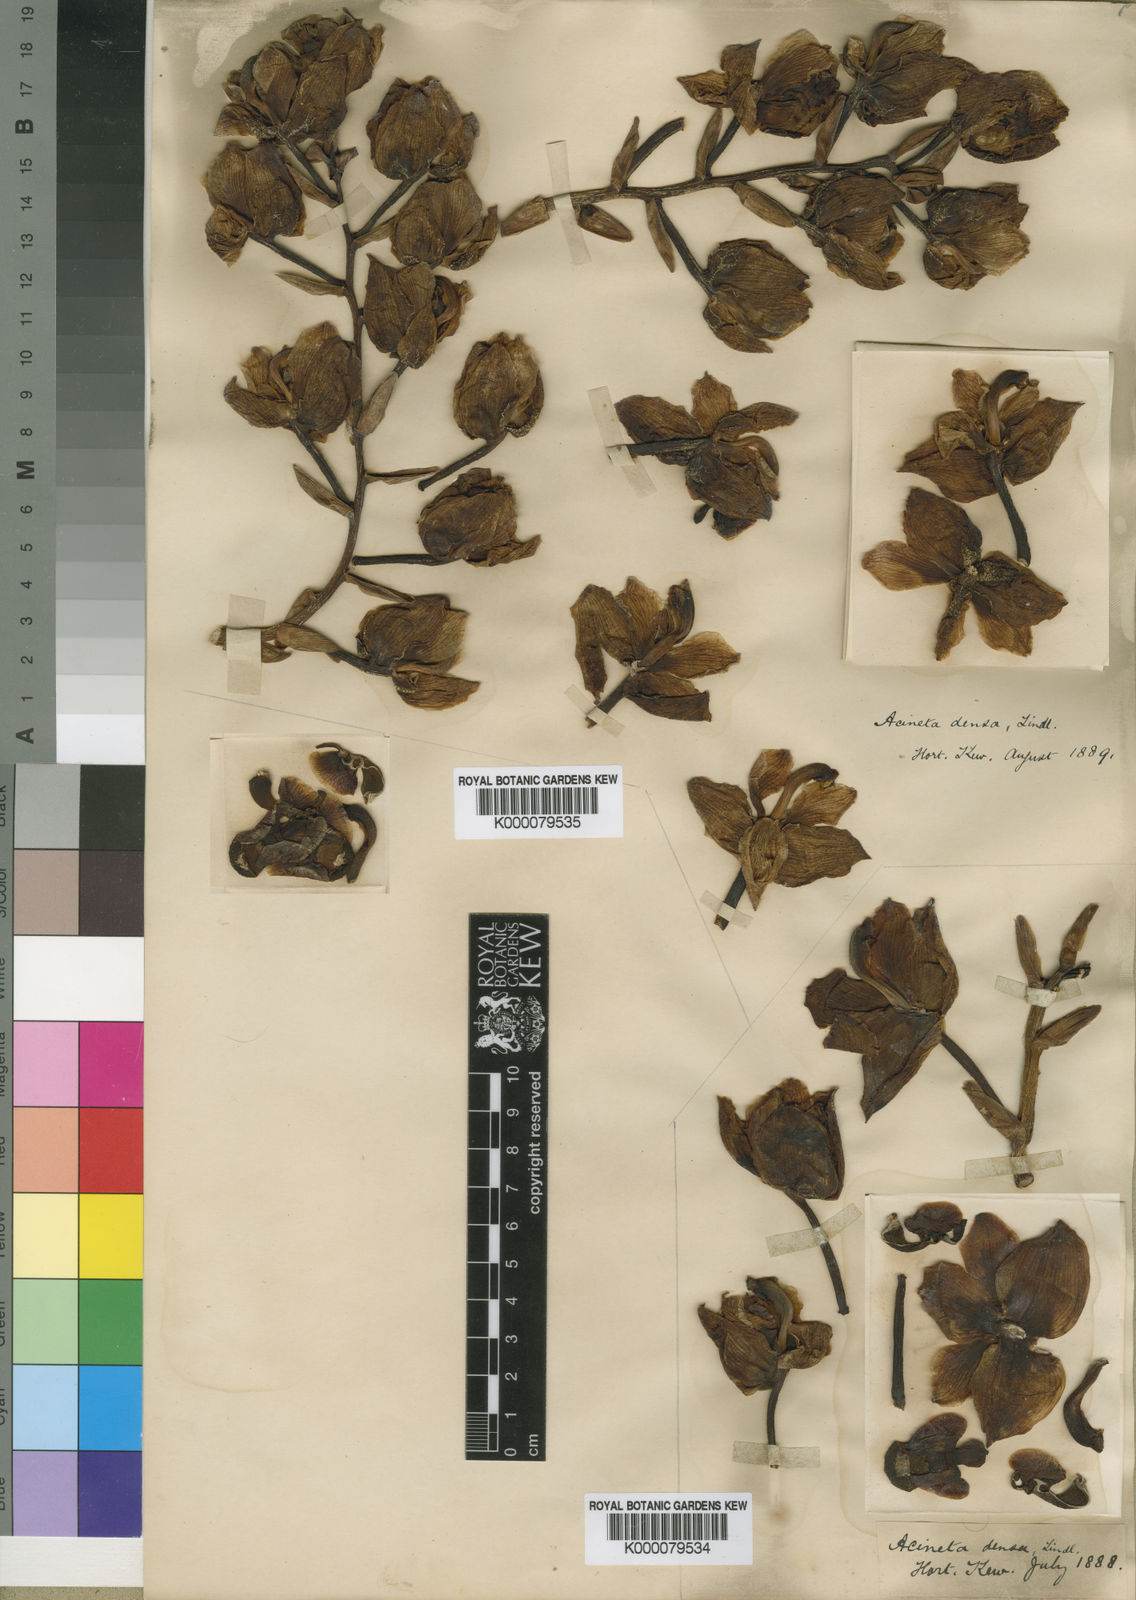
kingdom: Plantae
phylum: Tracheophyta
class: Liliopsida
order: Asparagales
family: Orchidaceae
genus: Acineta
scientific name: Acineta densa
